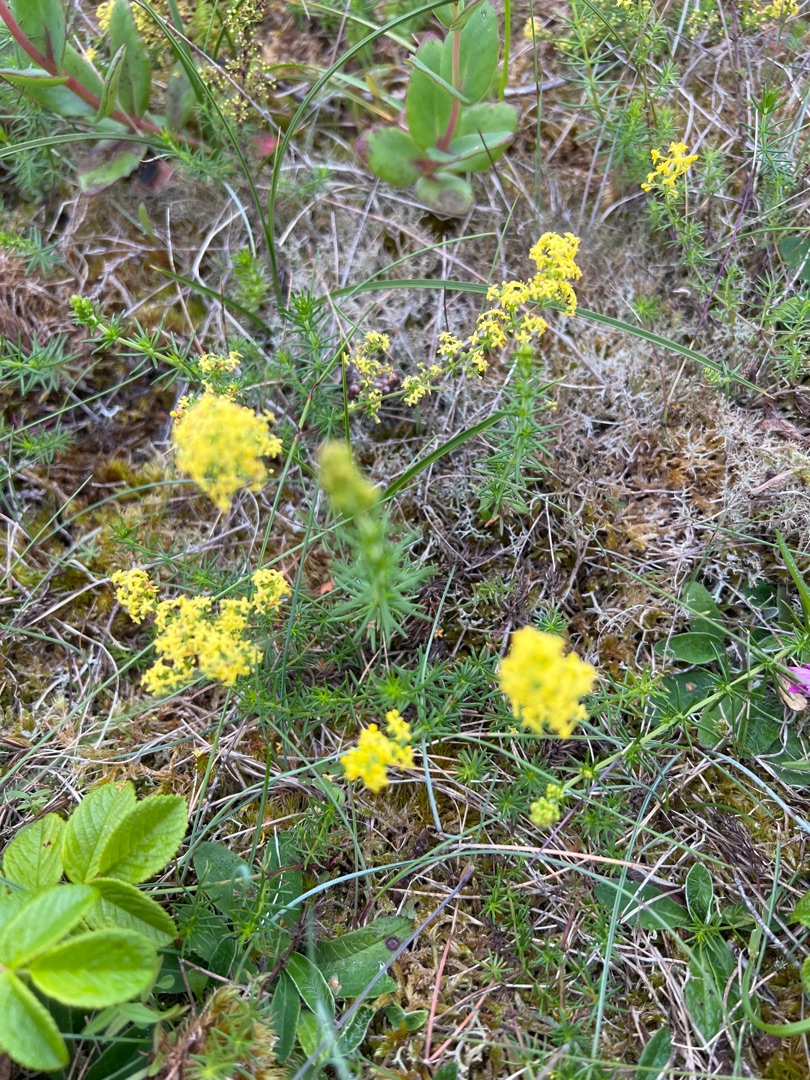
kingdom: Plantae
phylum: Tracheophyta
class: Magnoliopsida
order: Gentianales
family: Rubiaceae
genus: Galium
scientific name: Galium verum
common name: Gul snerre
